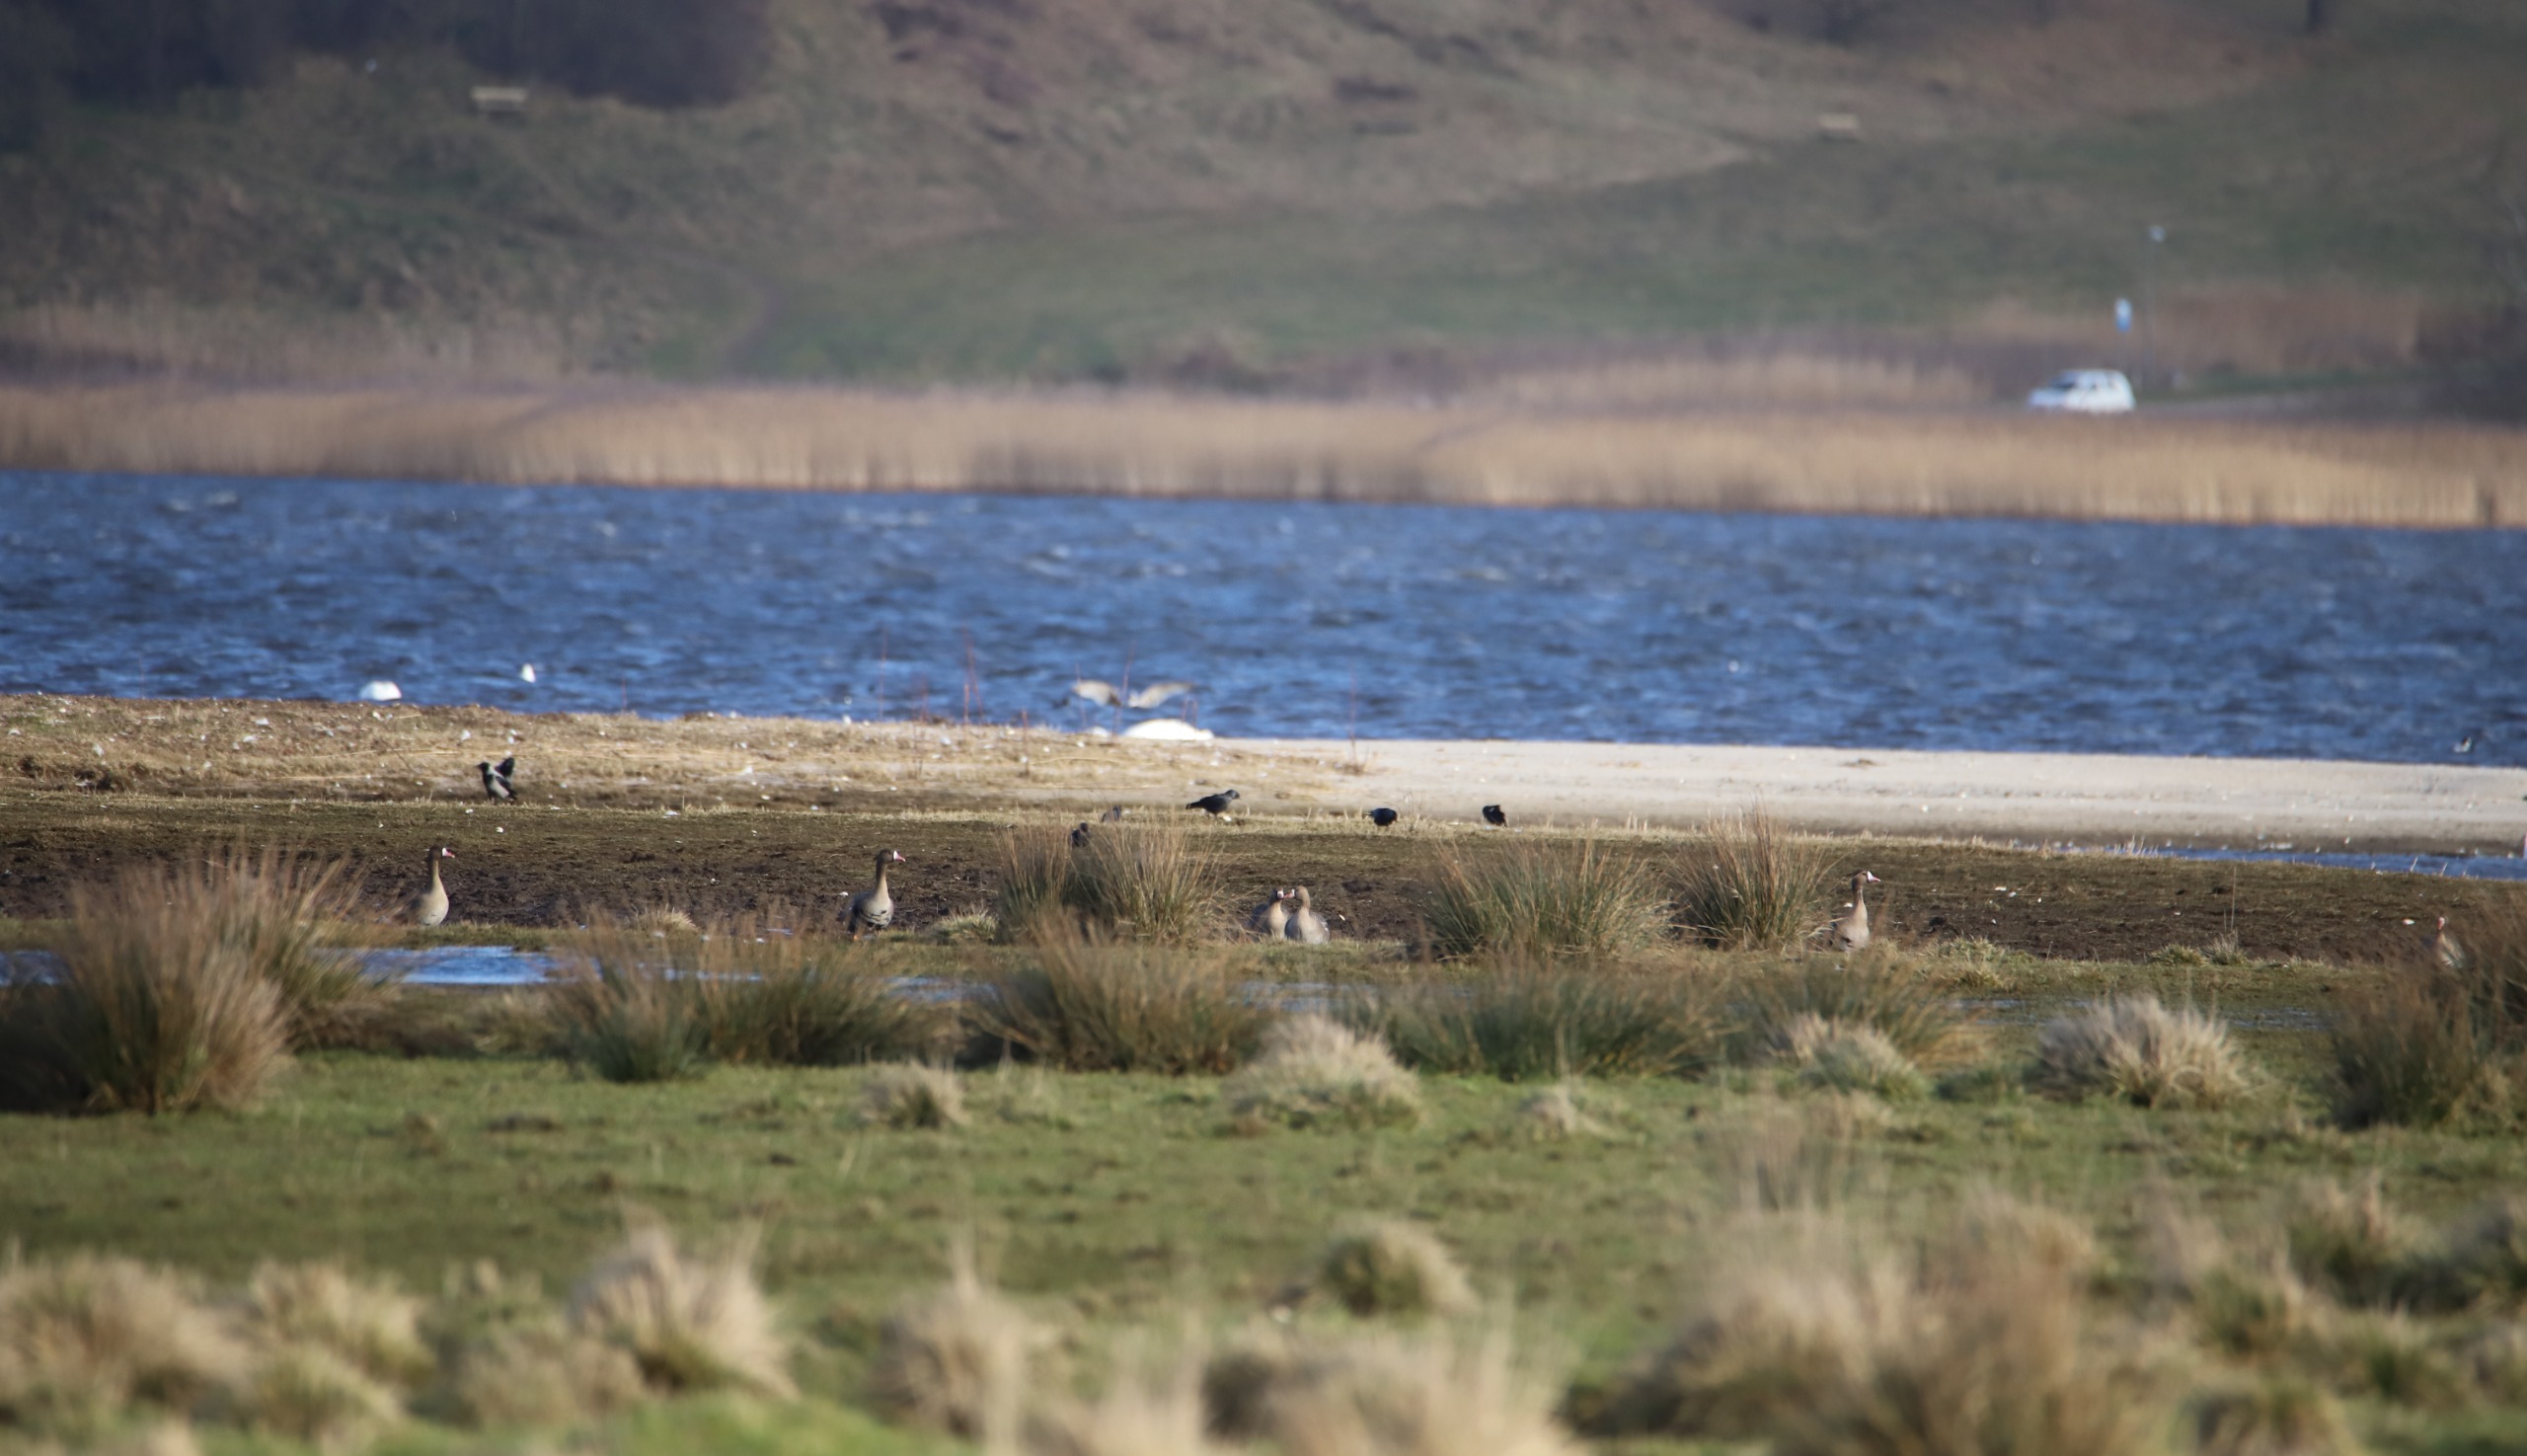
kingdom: Animalia
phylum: Chordata
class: Aves
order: Anseriformes
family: Anatidae
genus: Anser
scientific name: Anser albifrons
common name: Blisgås
